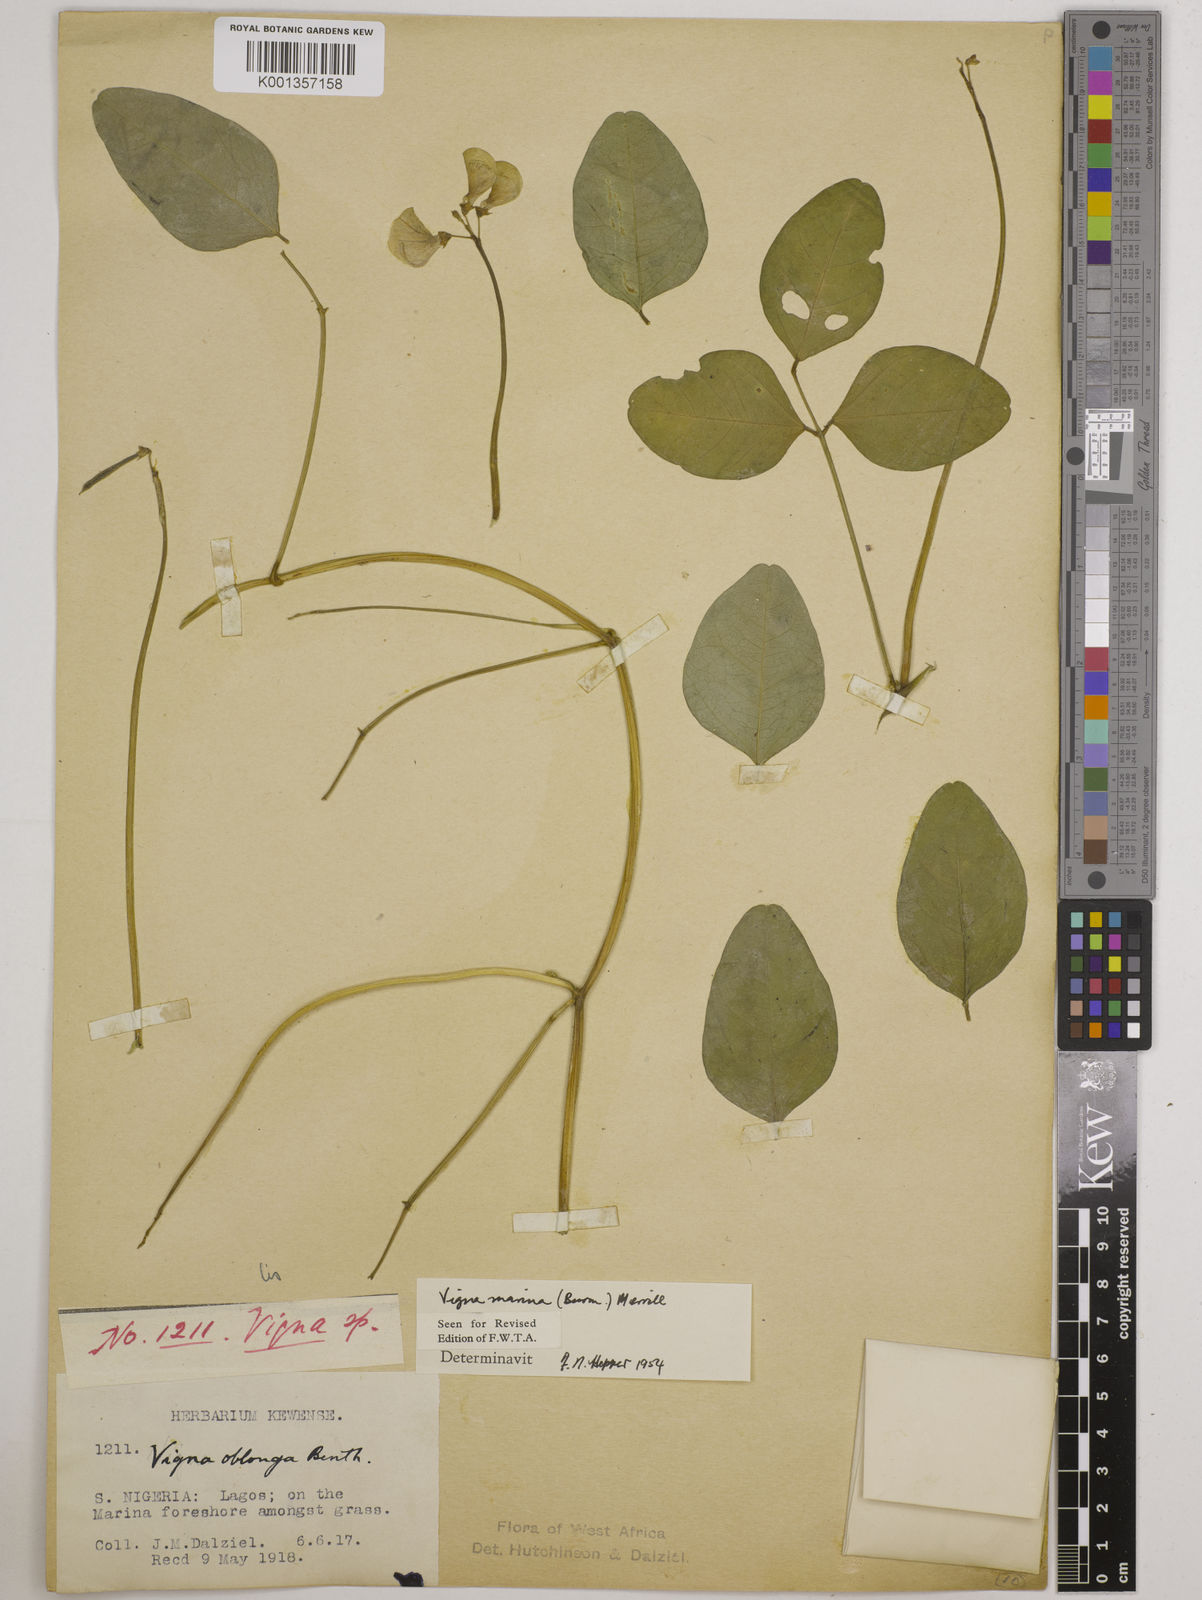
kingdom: Plantae
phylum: Tracheophyta
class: Magnoliopsida
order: Fabales
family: Fabaceae
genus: Vigna
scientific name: Vigna marina
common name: Dune-bean
